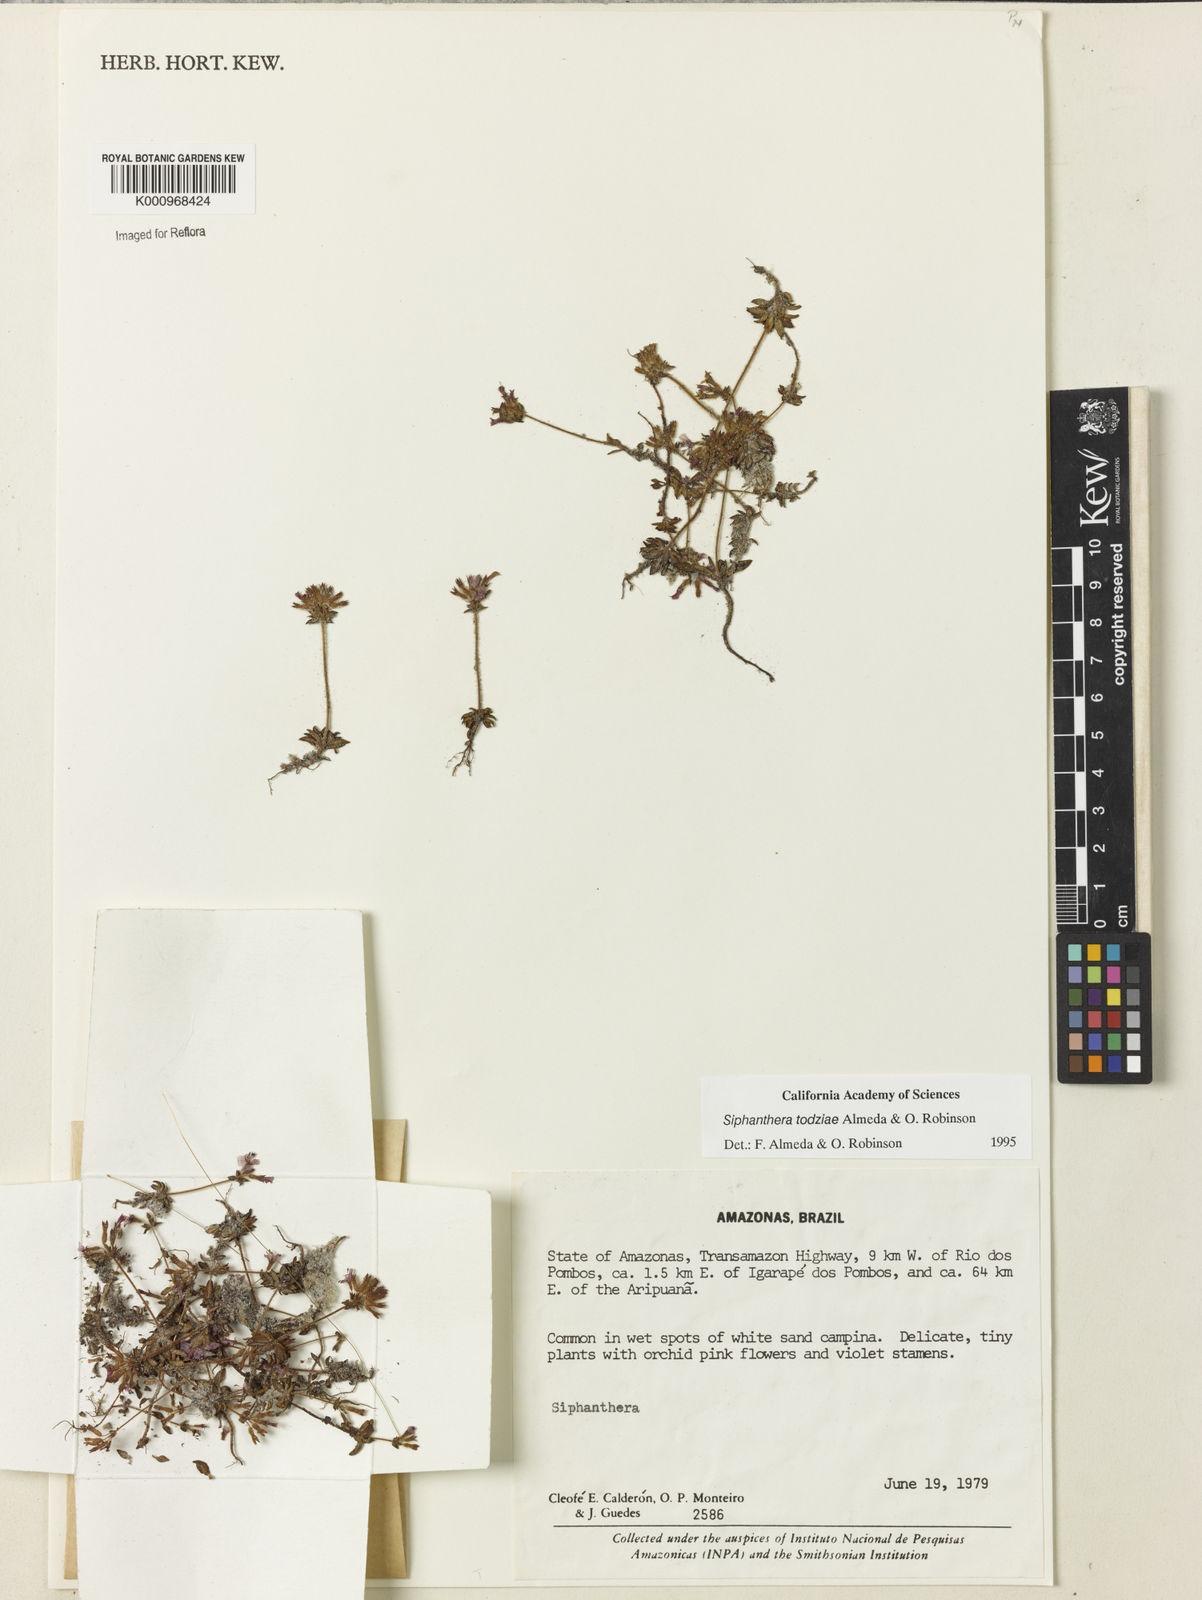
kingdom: Plantae
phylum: Tracheophyta
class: Magnoliopsida
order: Myrtales
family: Melastomataceae
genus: Siphanthera
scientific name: Siphanthera todziae
